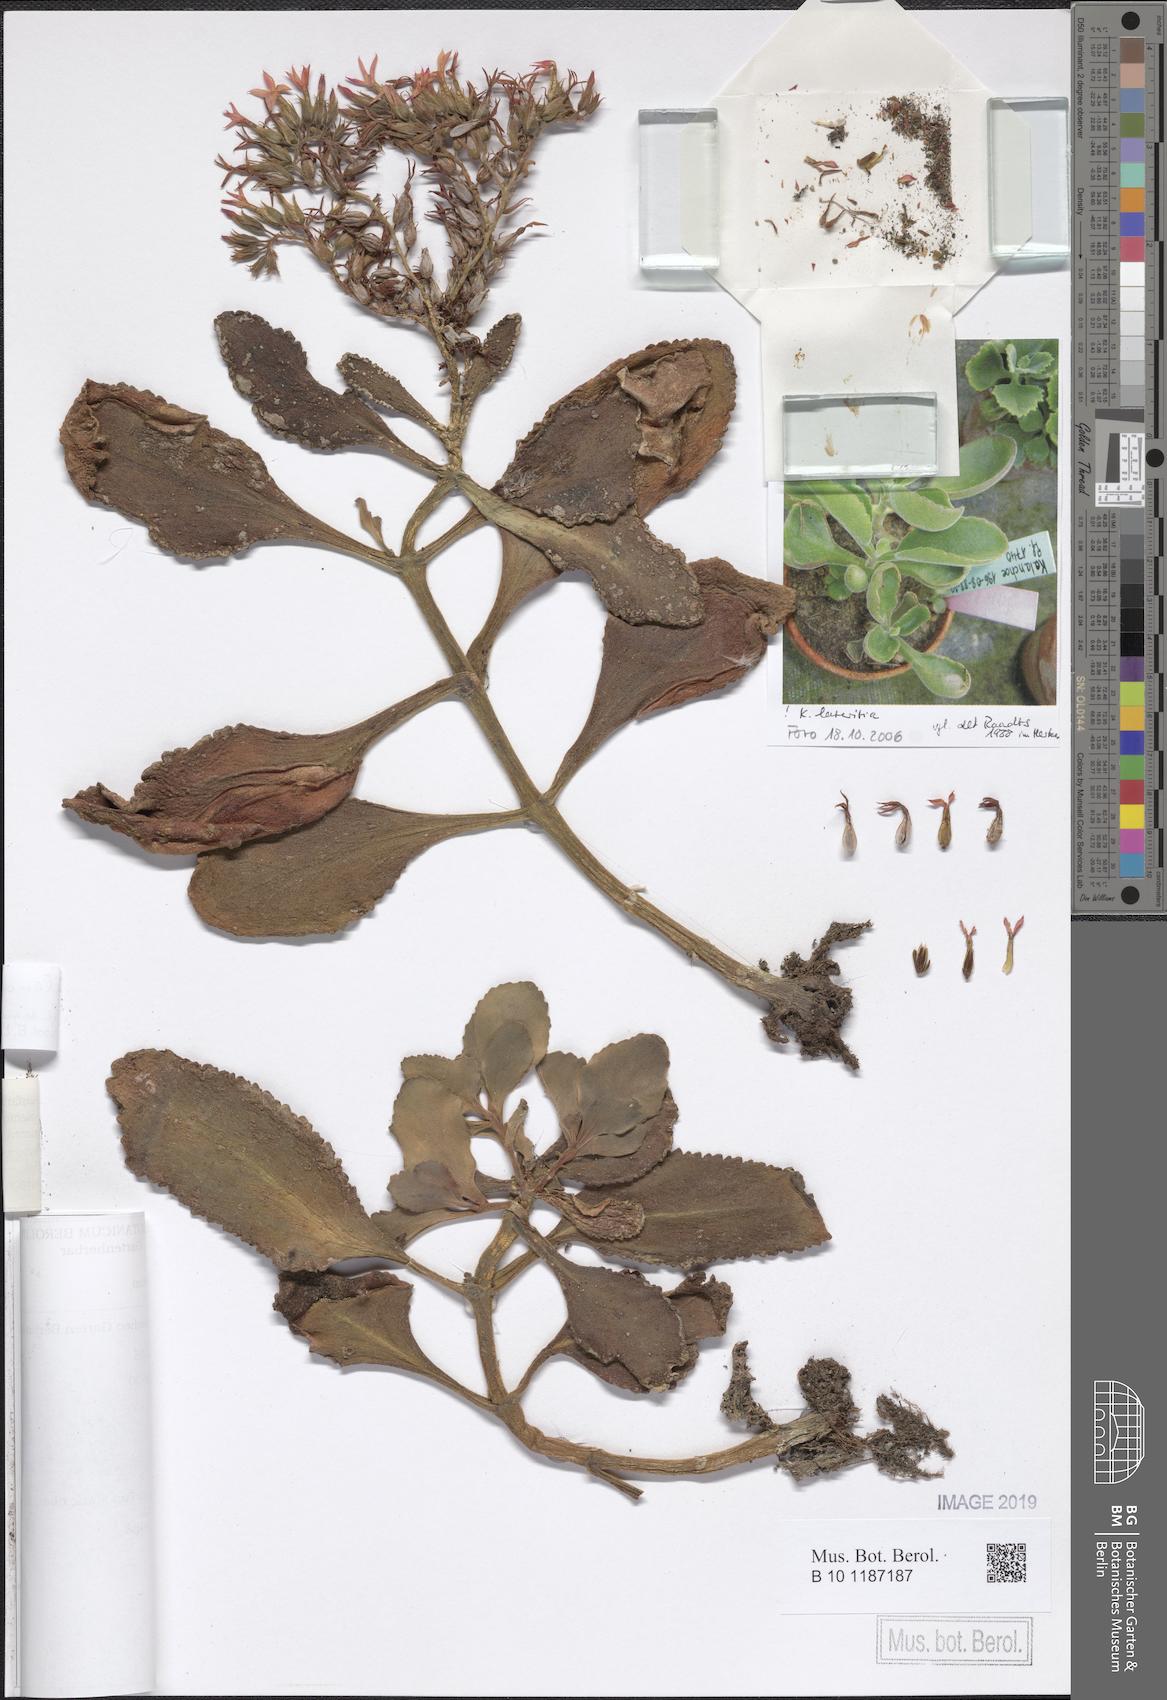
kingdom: Plantae
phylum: Tracheophyta
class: Magnoliopsida
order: Saxifragales
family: Crassulaceae
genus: Kalanchoe
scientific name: Kalanchoe lateritia
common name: Kalanchoe
